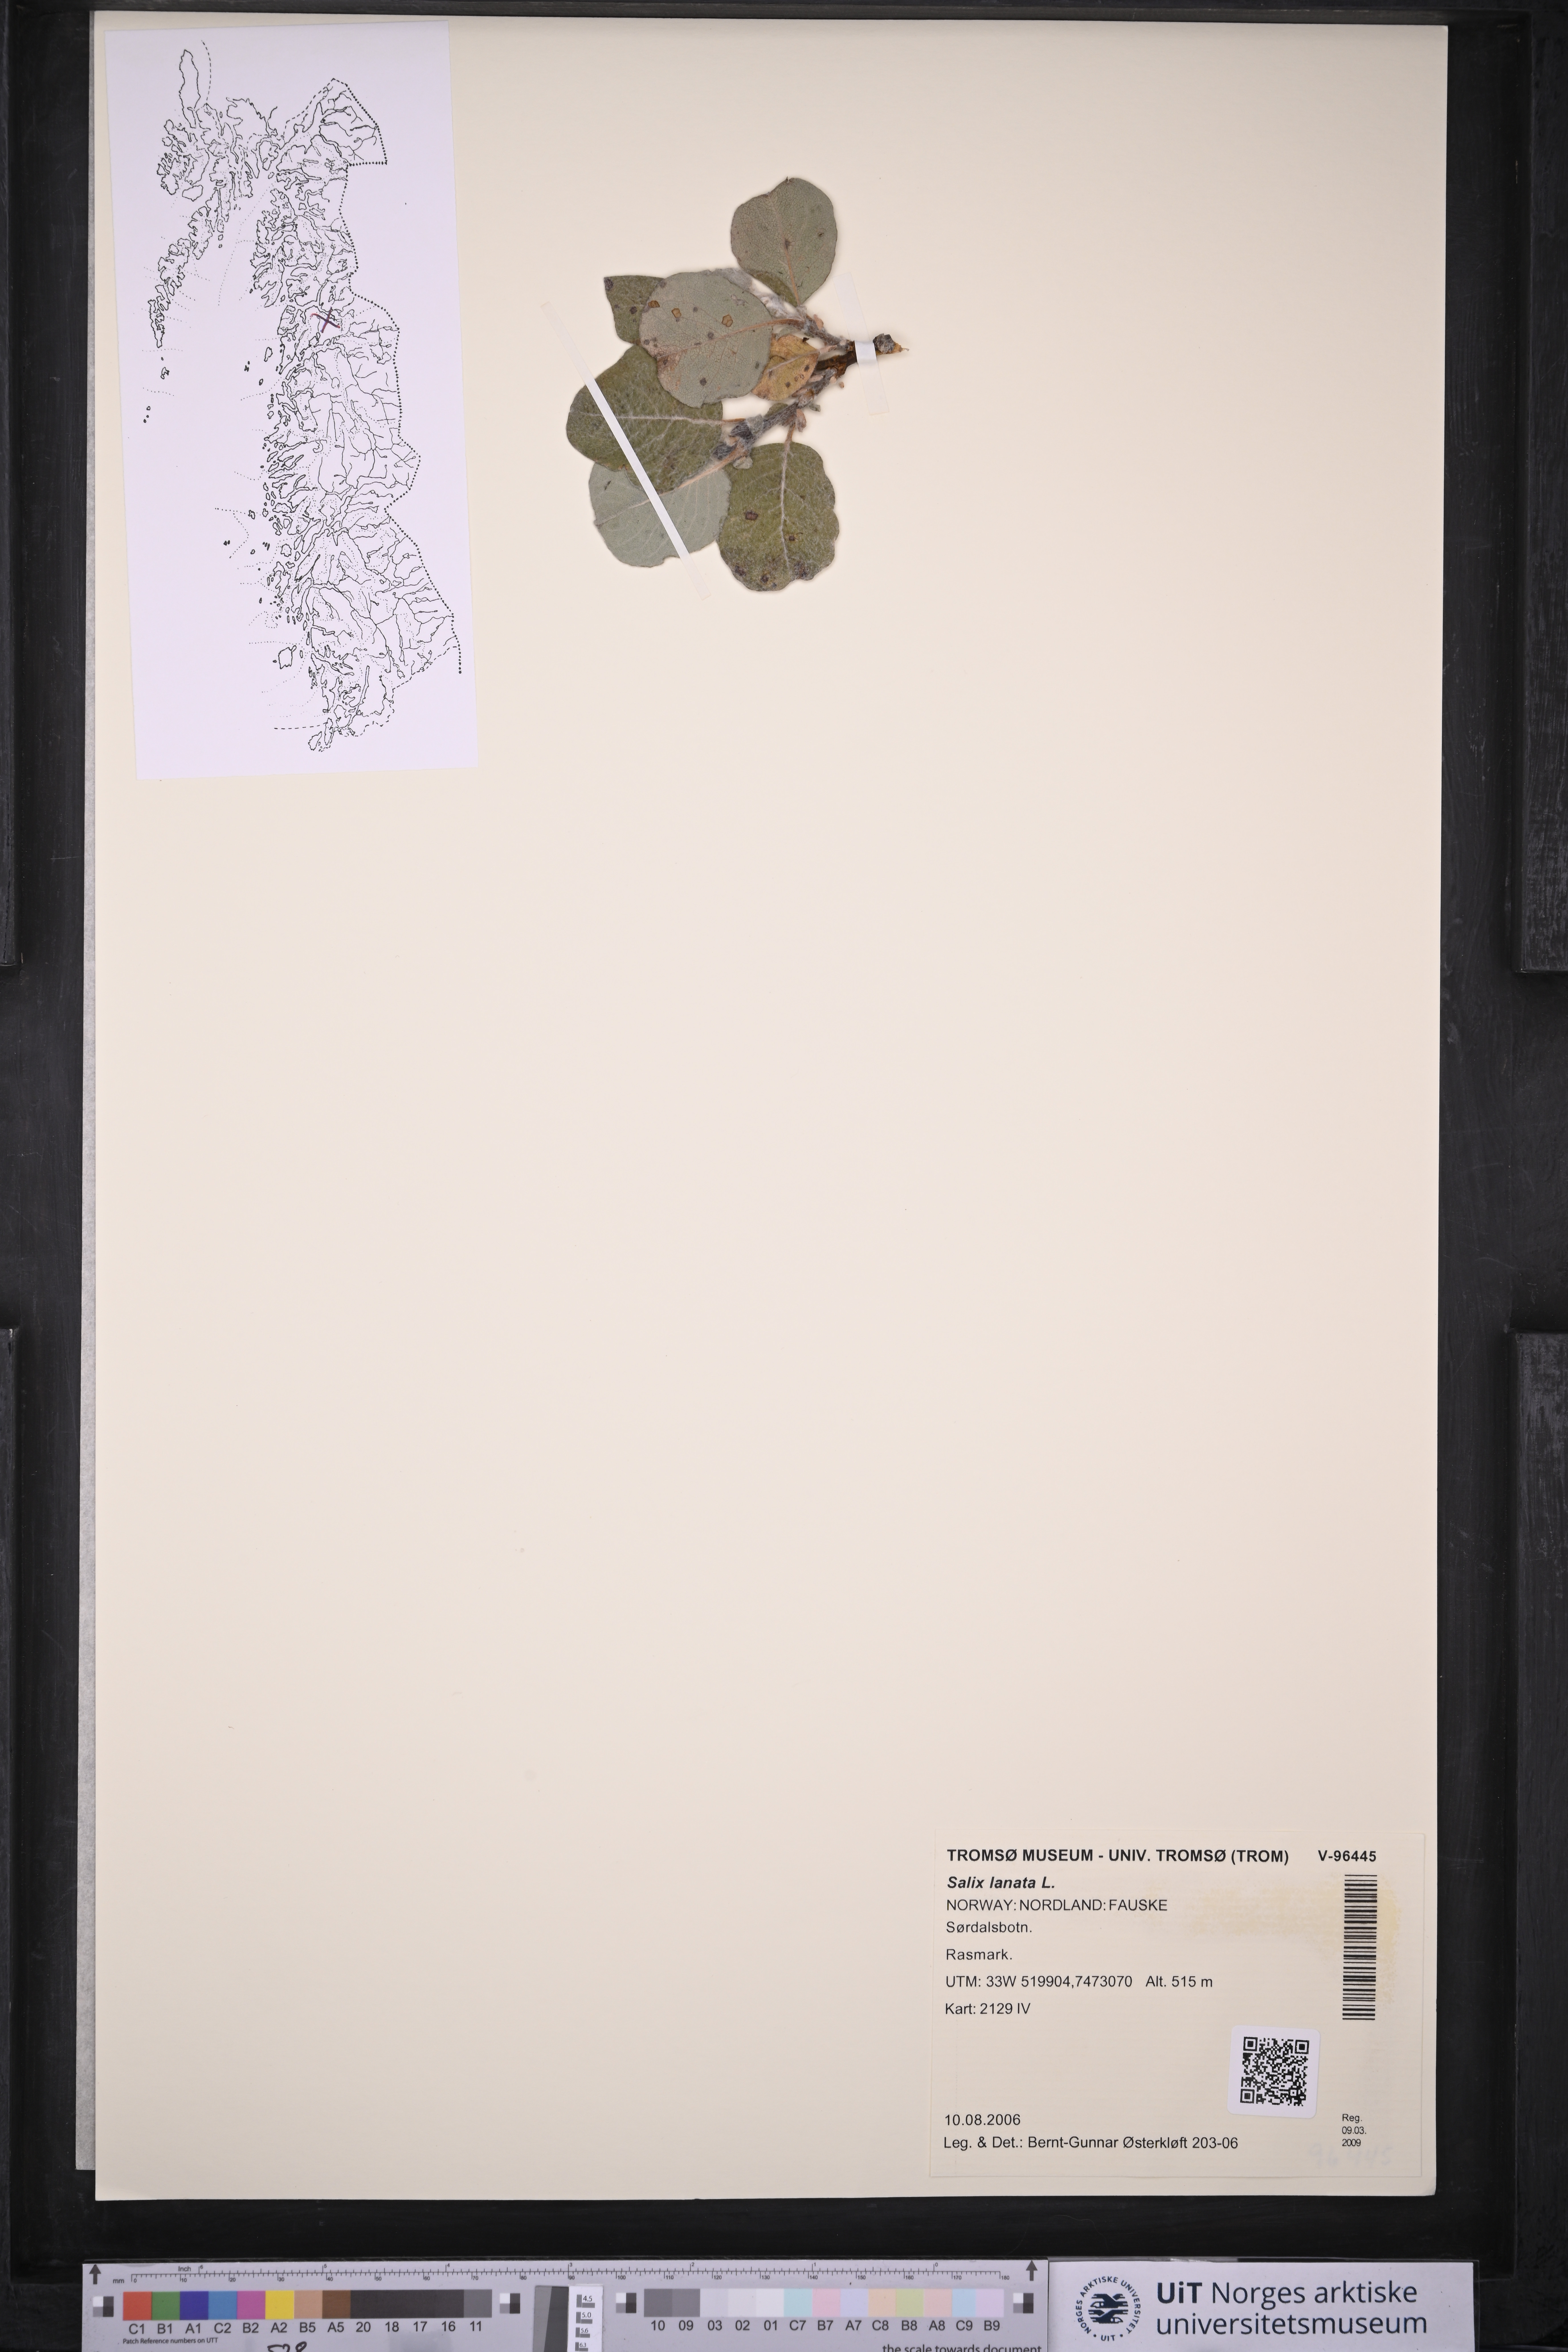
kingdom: Plantae
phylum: Tracheophyta
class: Magnoliopsida
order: Malpighiales
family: Salicaceae
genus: Salix
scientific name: Salix lanata
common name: Woolly willow
